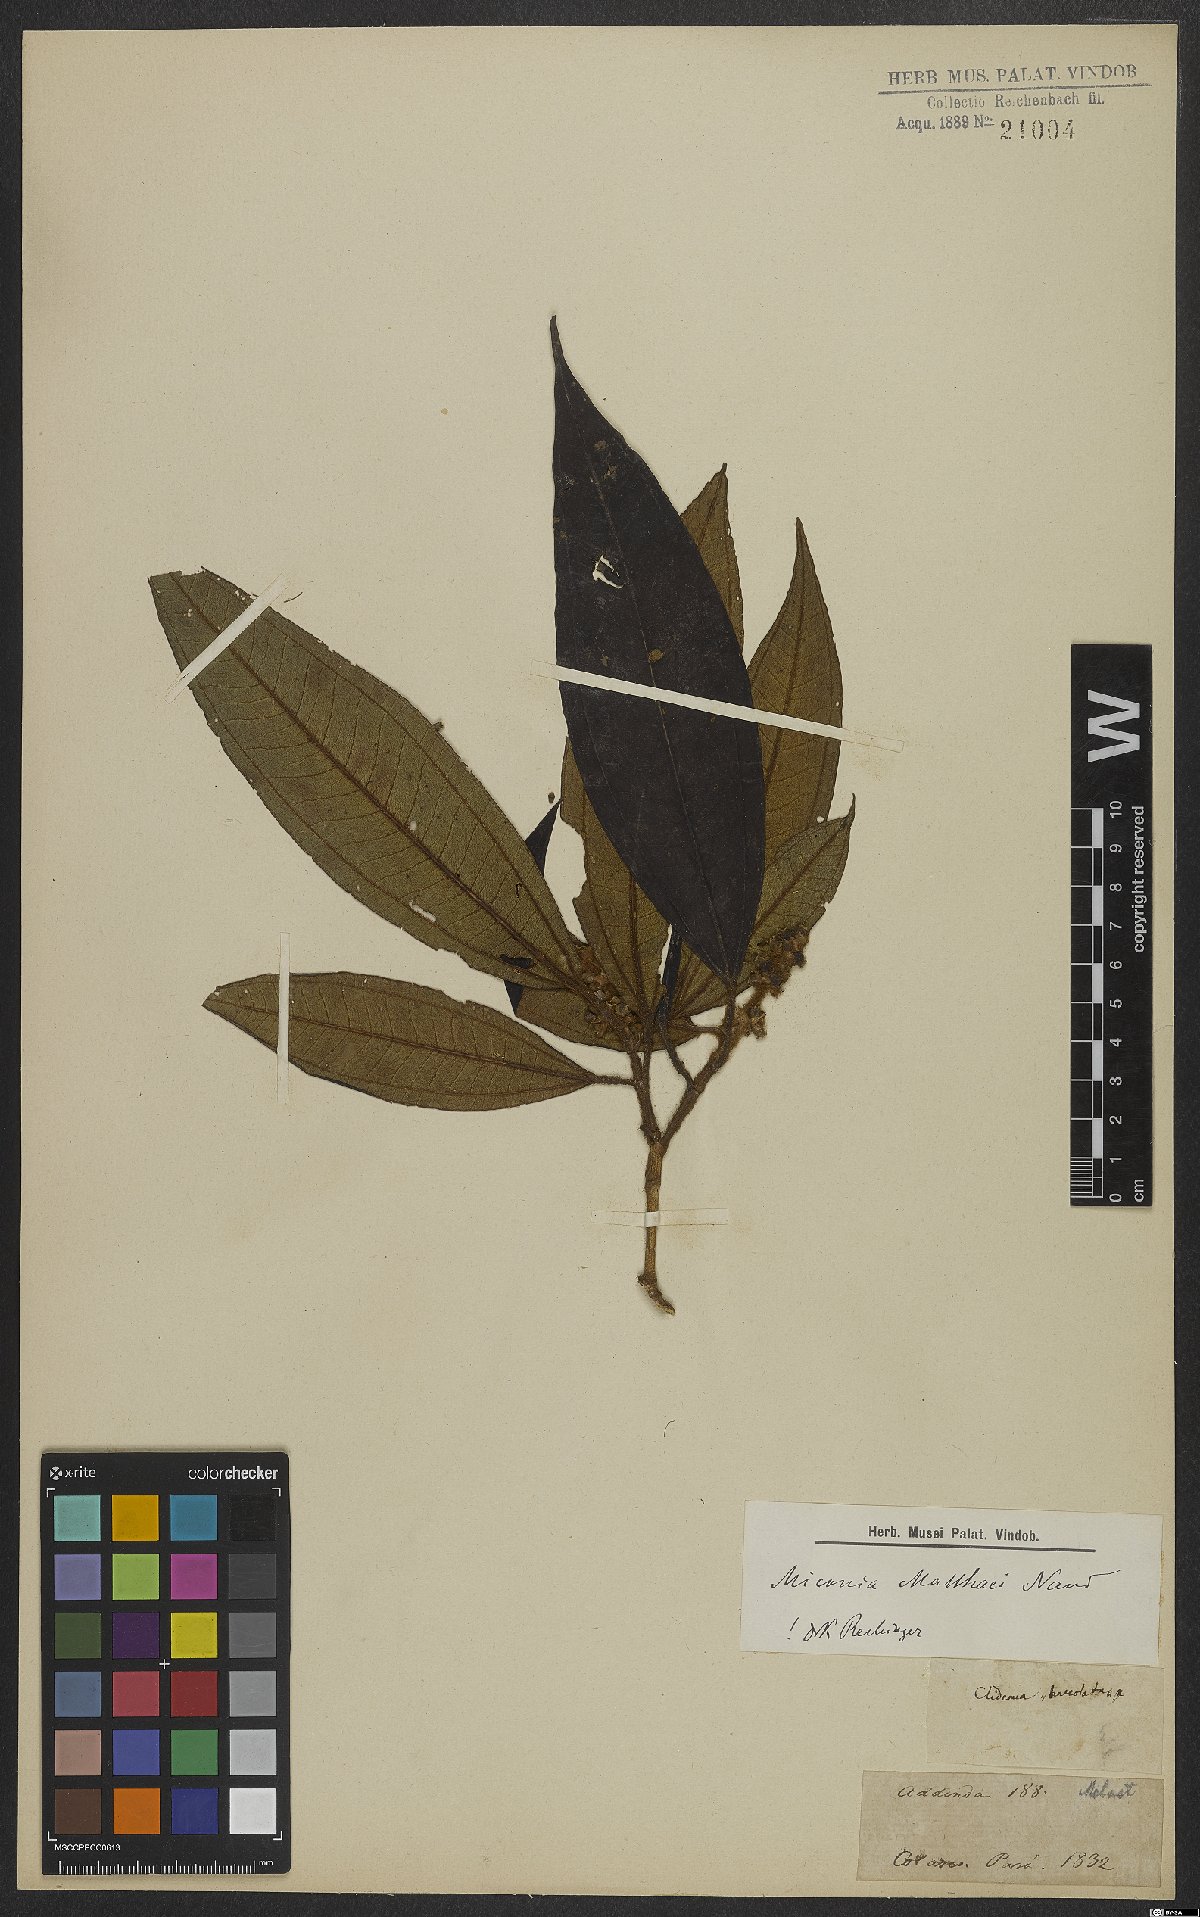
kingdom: Plantae
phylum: Tracheophyta
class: Magnoliopsida
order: Myrtales
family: Melastomataceae
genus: Miconia
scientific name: Miconia matthaei
